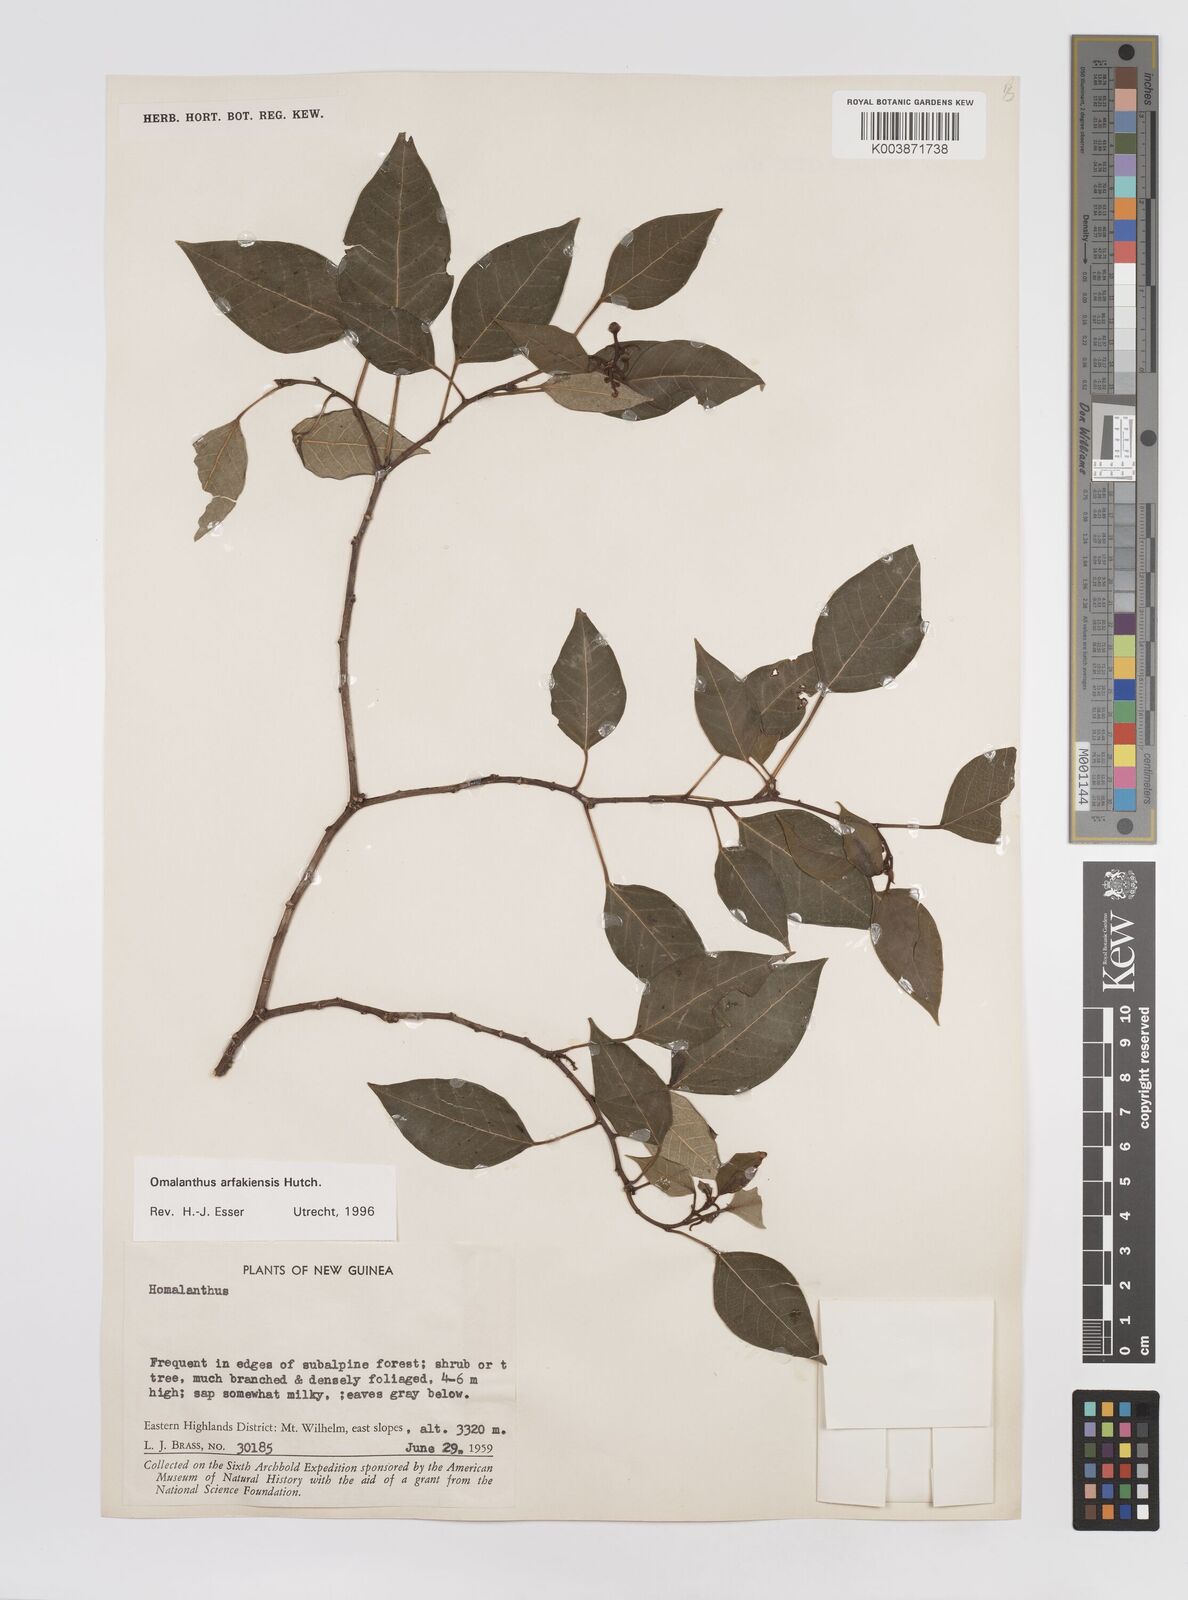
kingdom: Plantae
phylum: Tracheophyta
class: Magnoliopsida
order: Malpighiales
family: Euphorbiaceae
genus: Homalanthus
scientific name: Homalanthus arfakiensis
